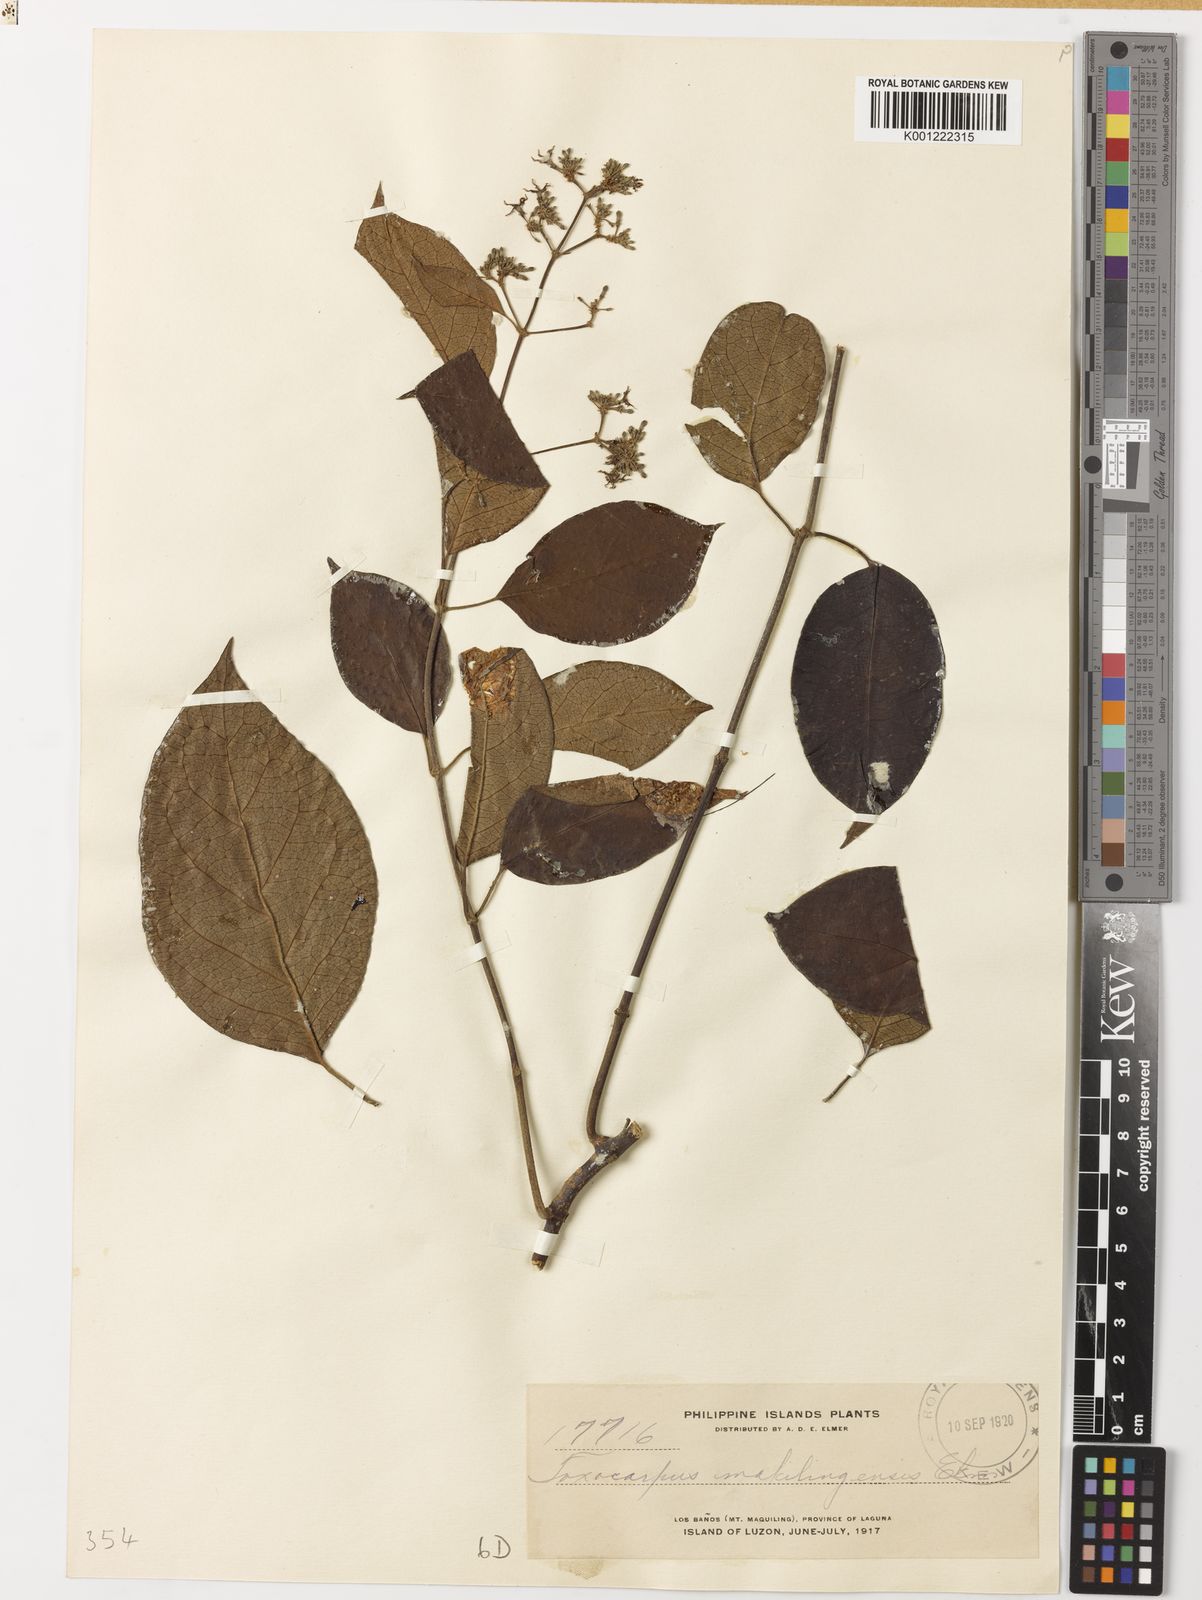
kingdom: Plantae
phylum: Tracheophyta
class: Magnoliopsida
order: Gentianales
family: Apocynaceae
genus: Toxocarpus
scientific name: Toxocarpus
